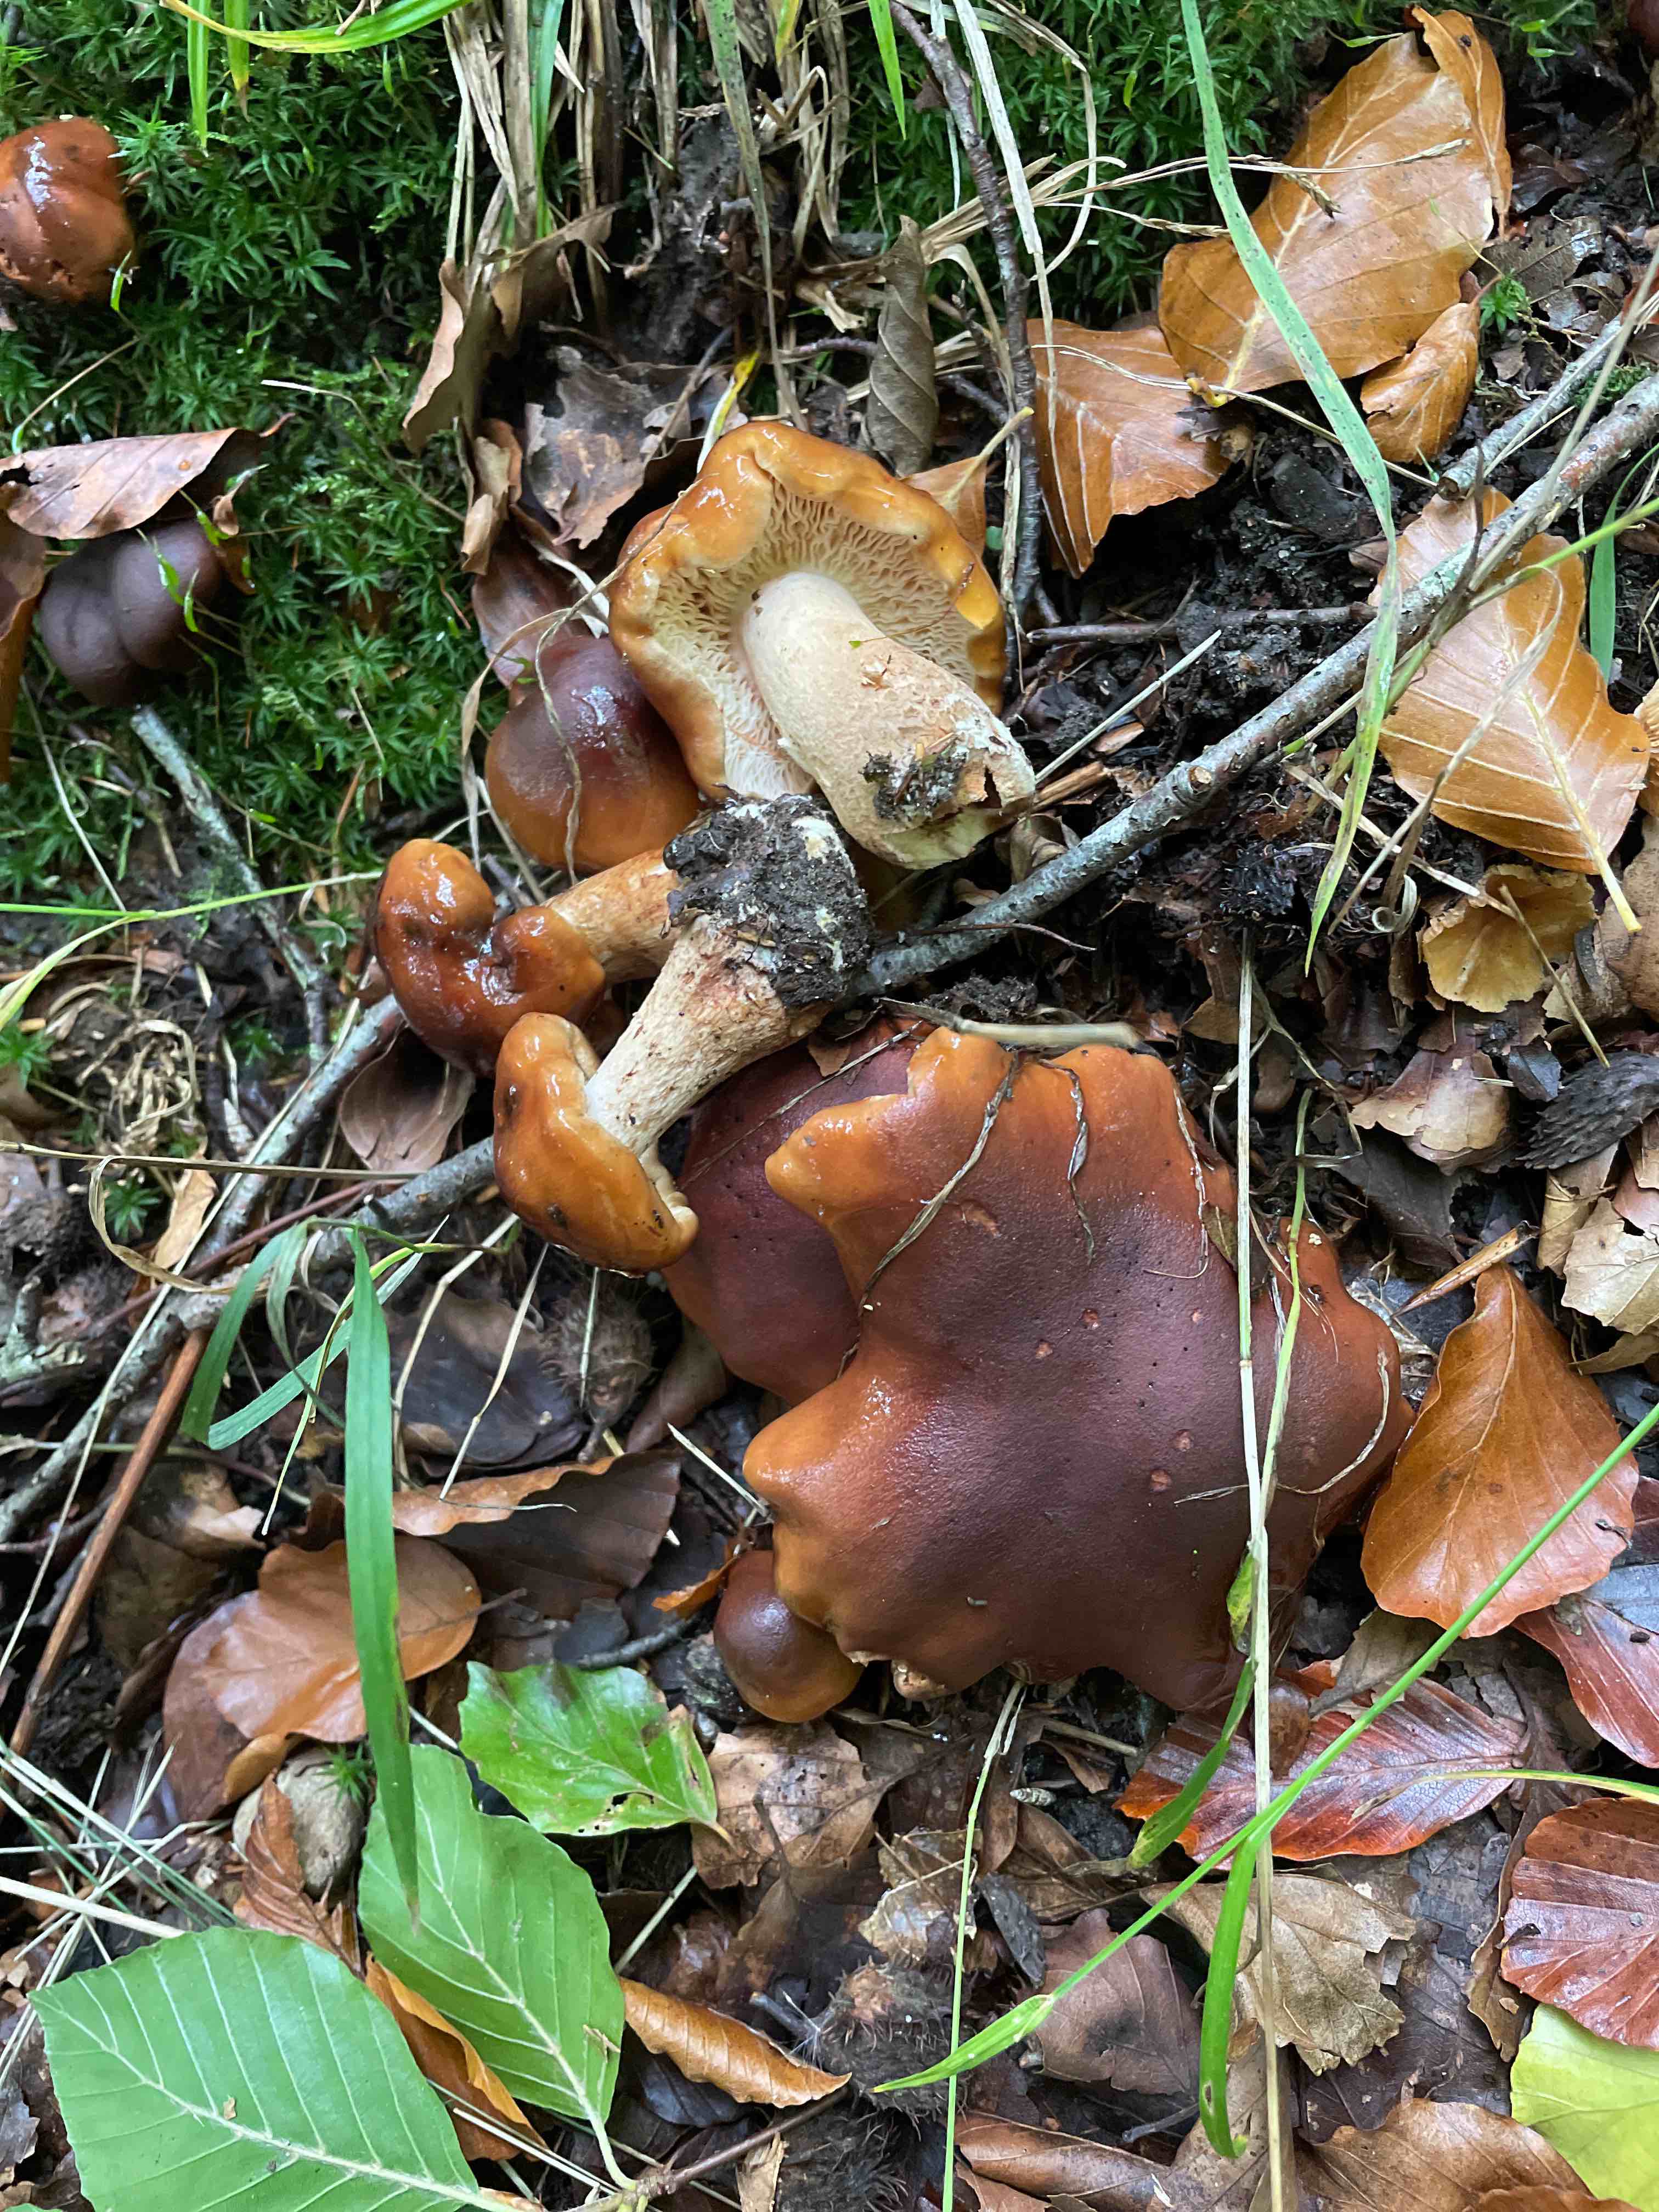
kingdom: Fungi
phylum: Basidiomycota
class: Agaricomycetes
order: Agaricales
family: Tricholomataceae
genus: Tricholoma
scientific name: Tricholoma ustale
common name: sveden ridderhat
